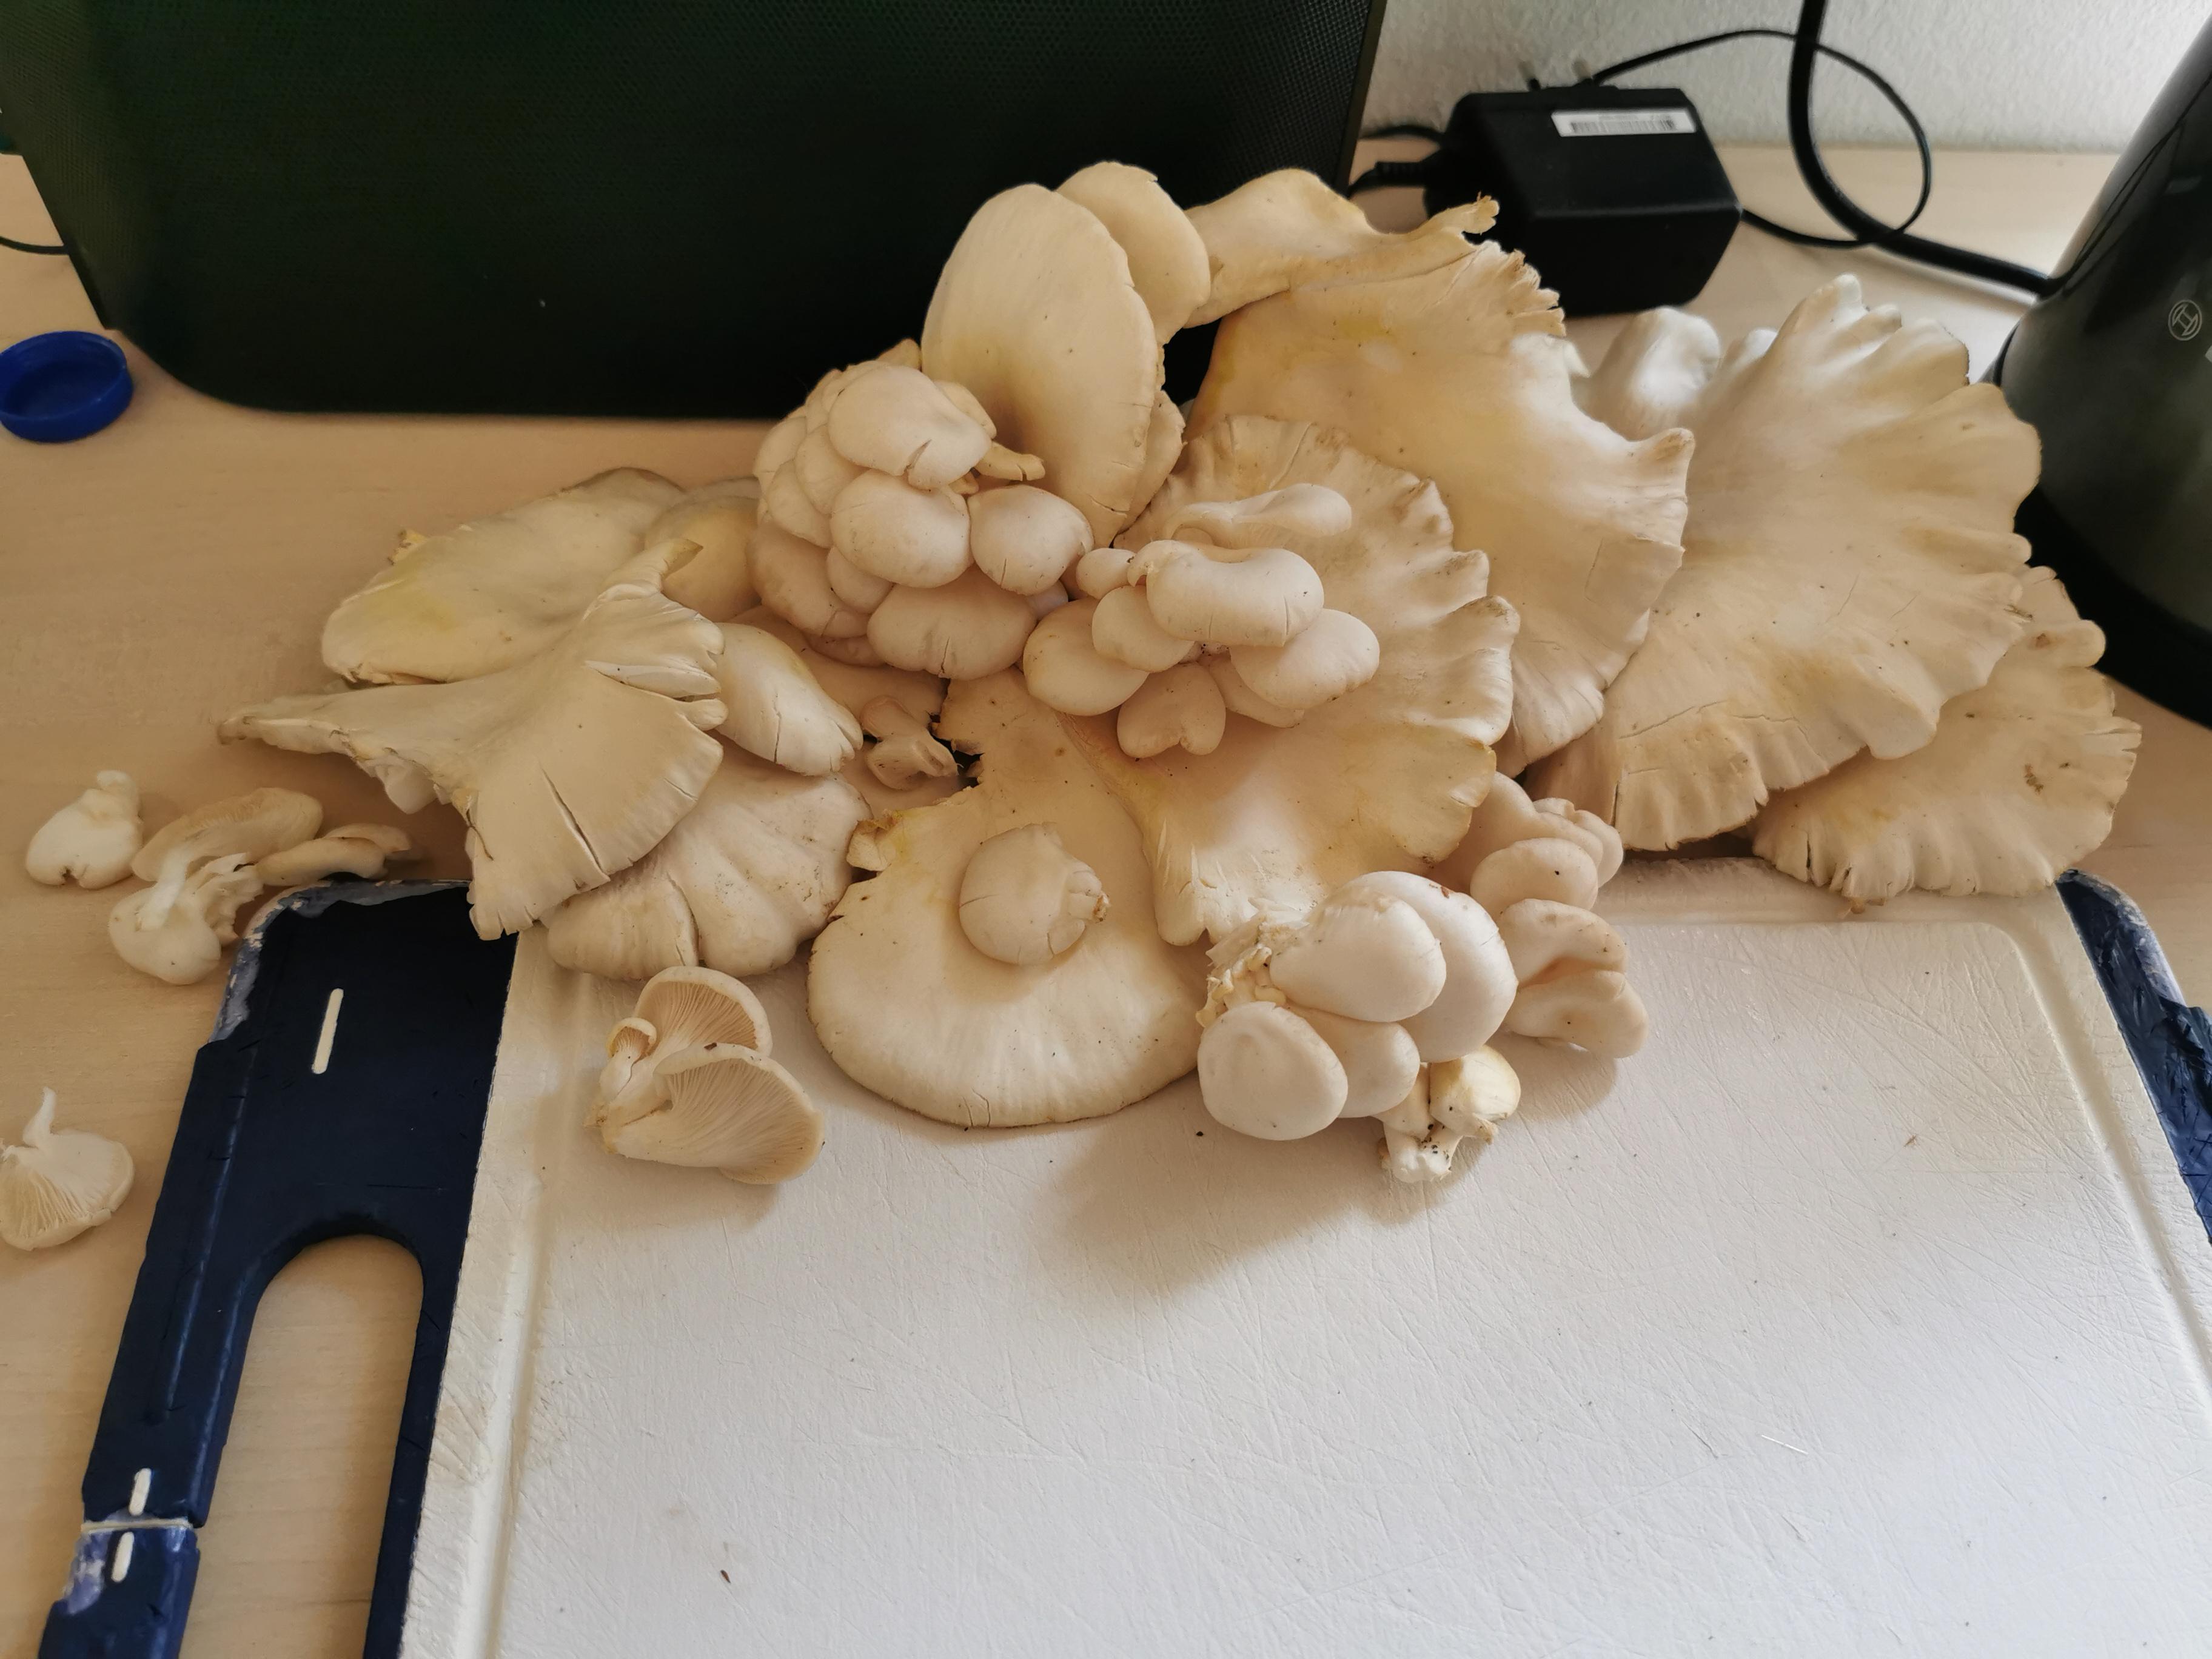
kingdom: Fungi
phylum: Basidiomycota
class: Agaricomycetes
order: Agaricales
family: Pleurotaceae
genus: Pleurotus
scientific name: Pleurotus pulmonarius
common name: sommer-østershat
